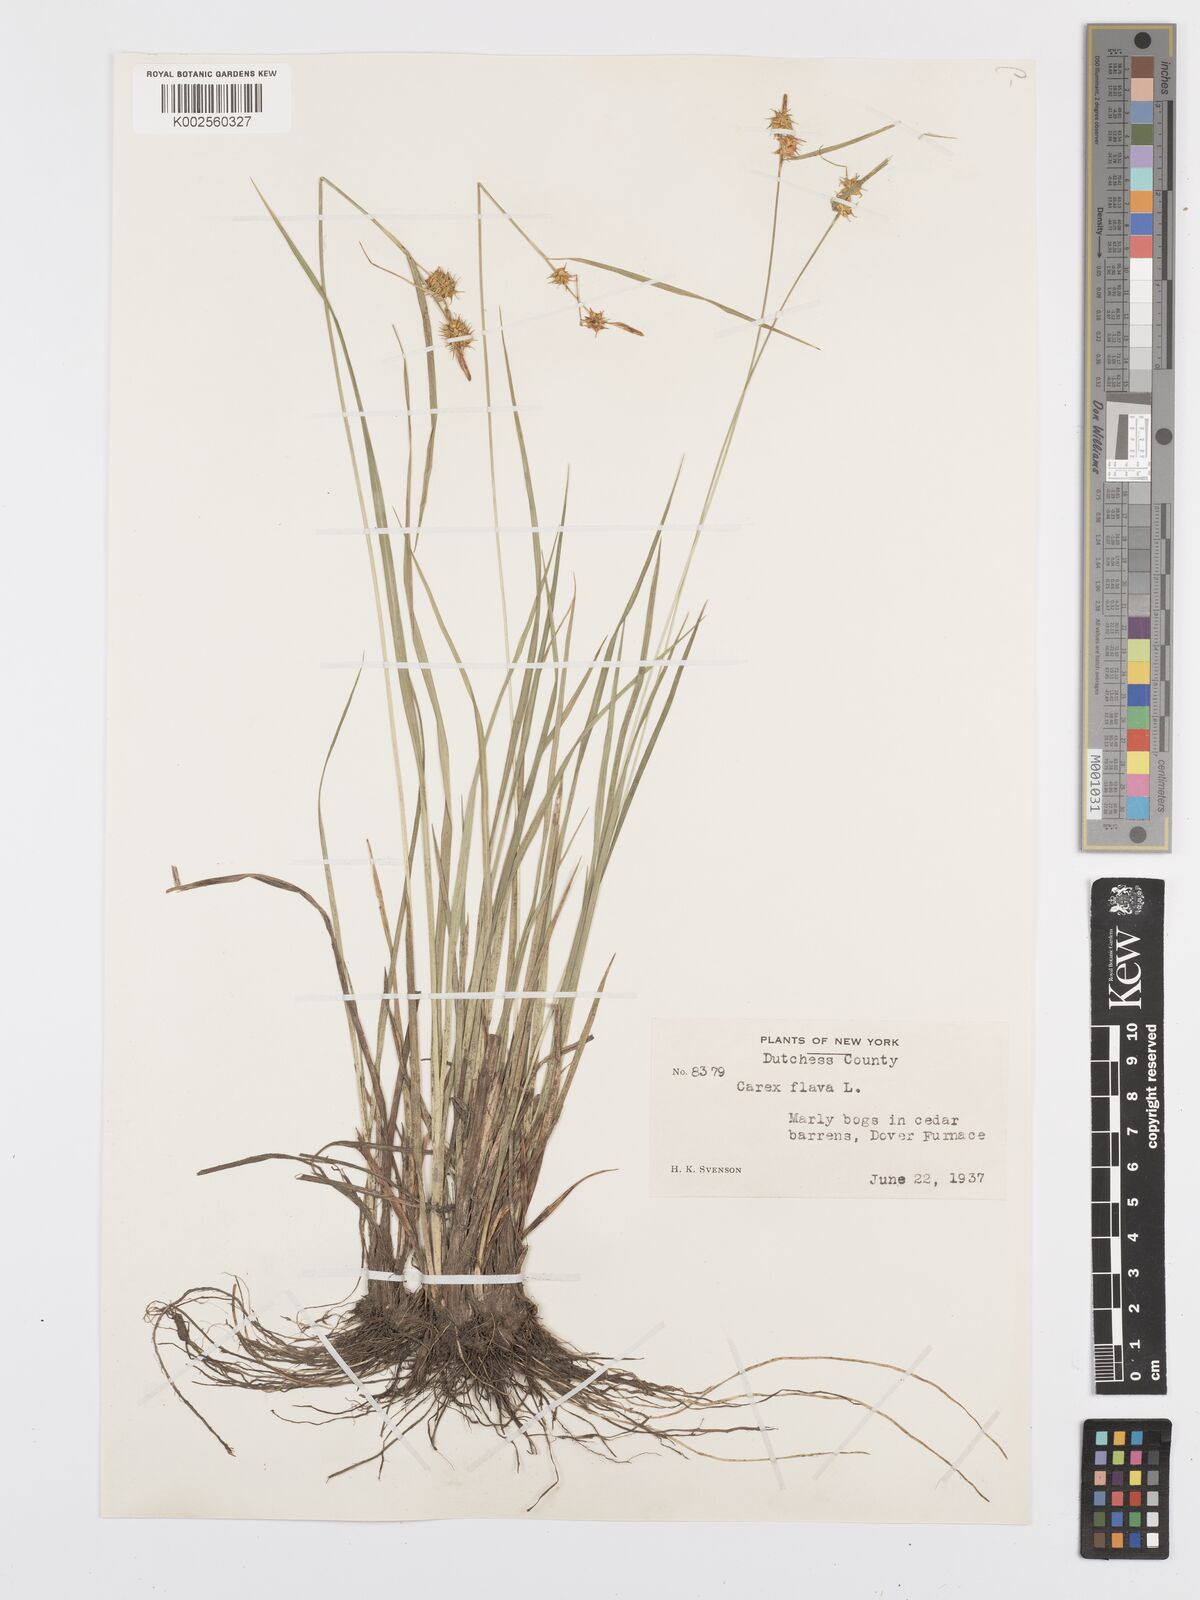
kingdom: Plantae
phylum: Tracheophyta
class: Liliopsida
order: Poales
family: Cyperaceae
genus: Carex
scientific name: Carex flava
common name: Large yellow-sedge
